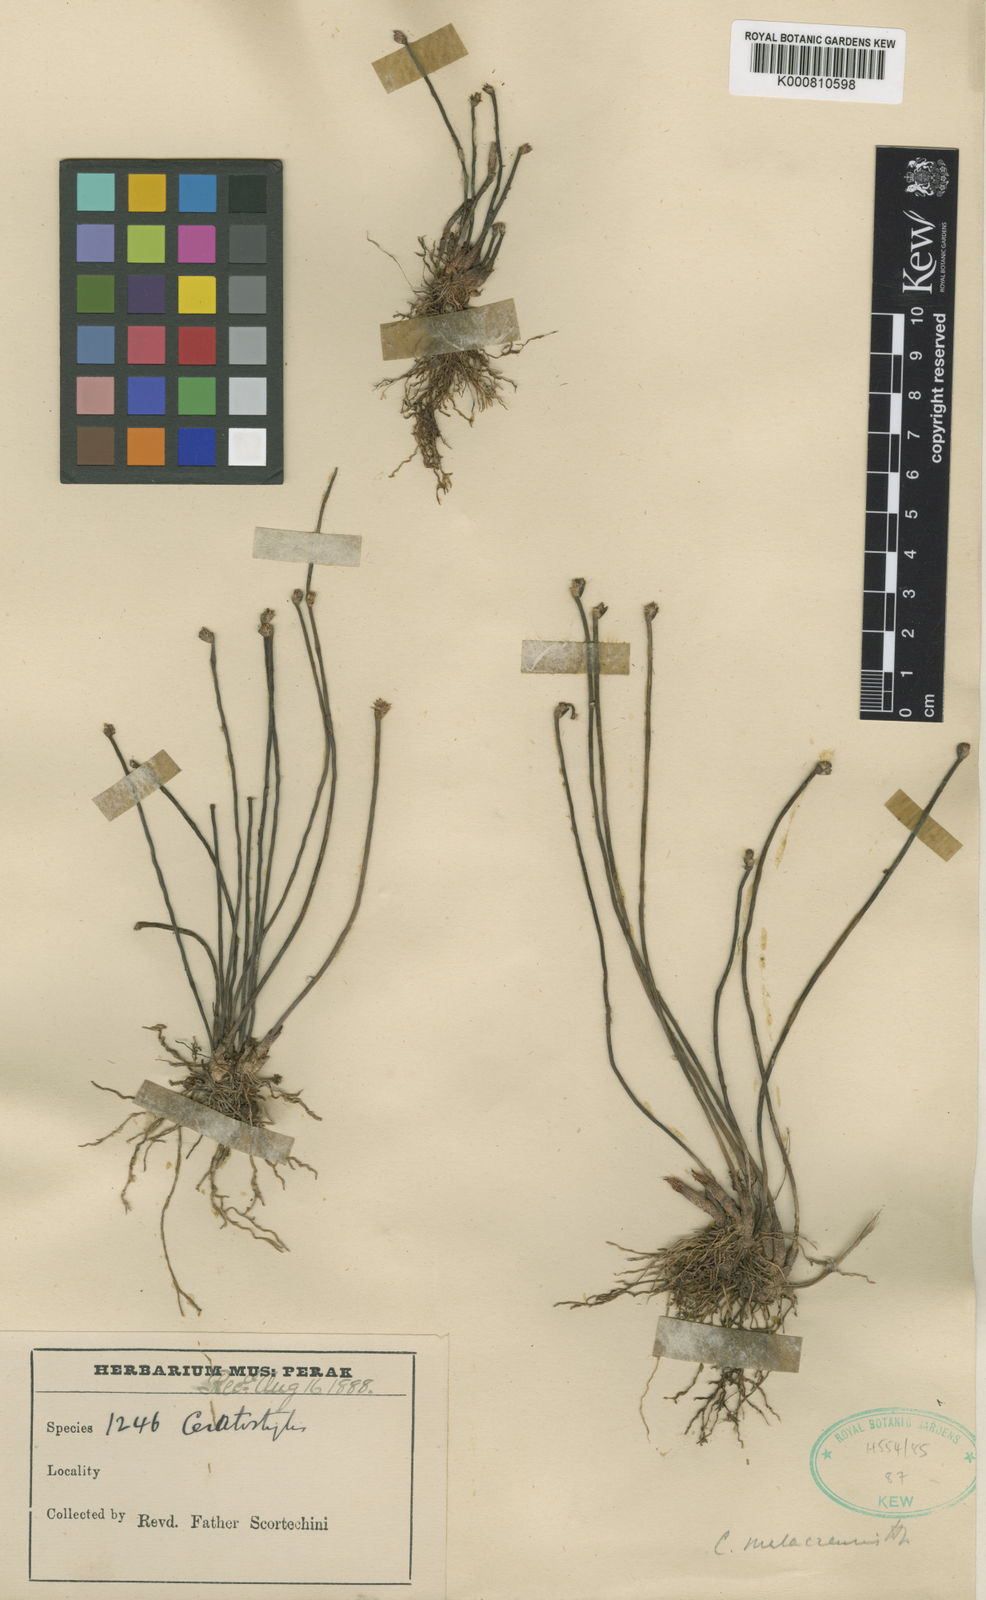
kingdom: Plantae
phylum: Tracheophyta
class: Liliopsida
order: Asparagales
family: Orchidaceae
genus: Ceratostylis
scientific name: Ceratostylis subulata
